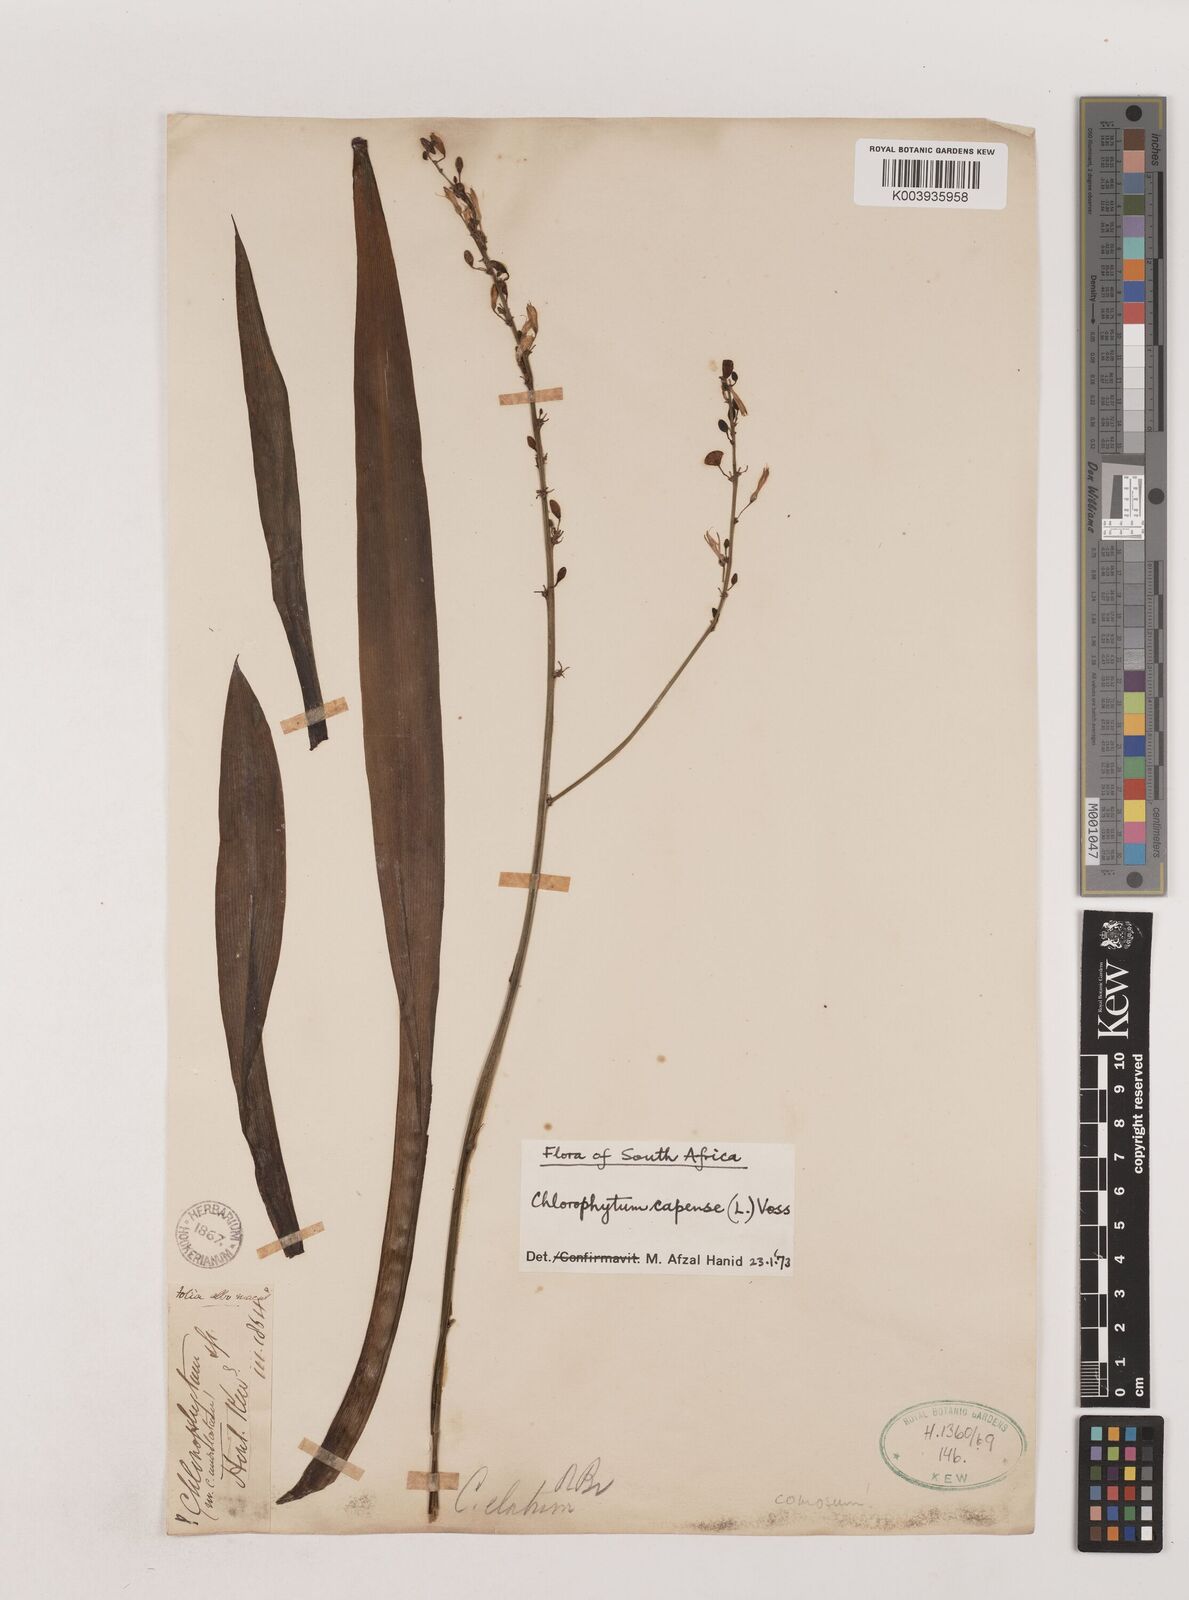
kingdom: Plantae
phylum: Tracheophyta
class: Liliopsida
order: Asparagales
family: Asparagaceae
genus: Chlorophytum
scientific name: Chlorophytum capense
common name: Bracketplant
